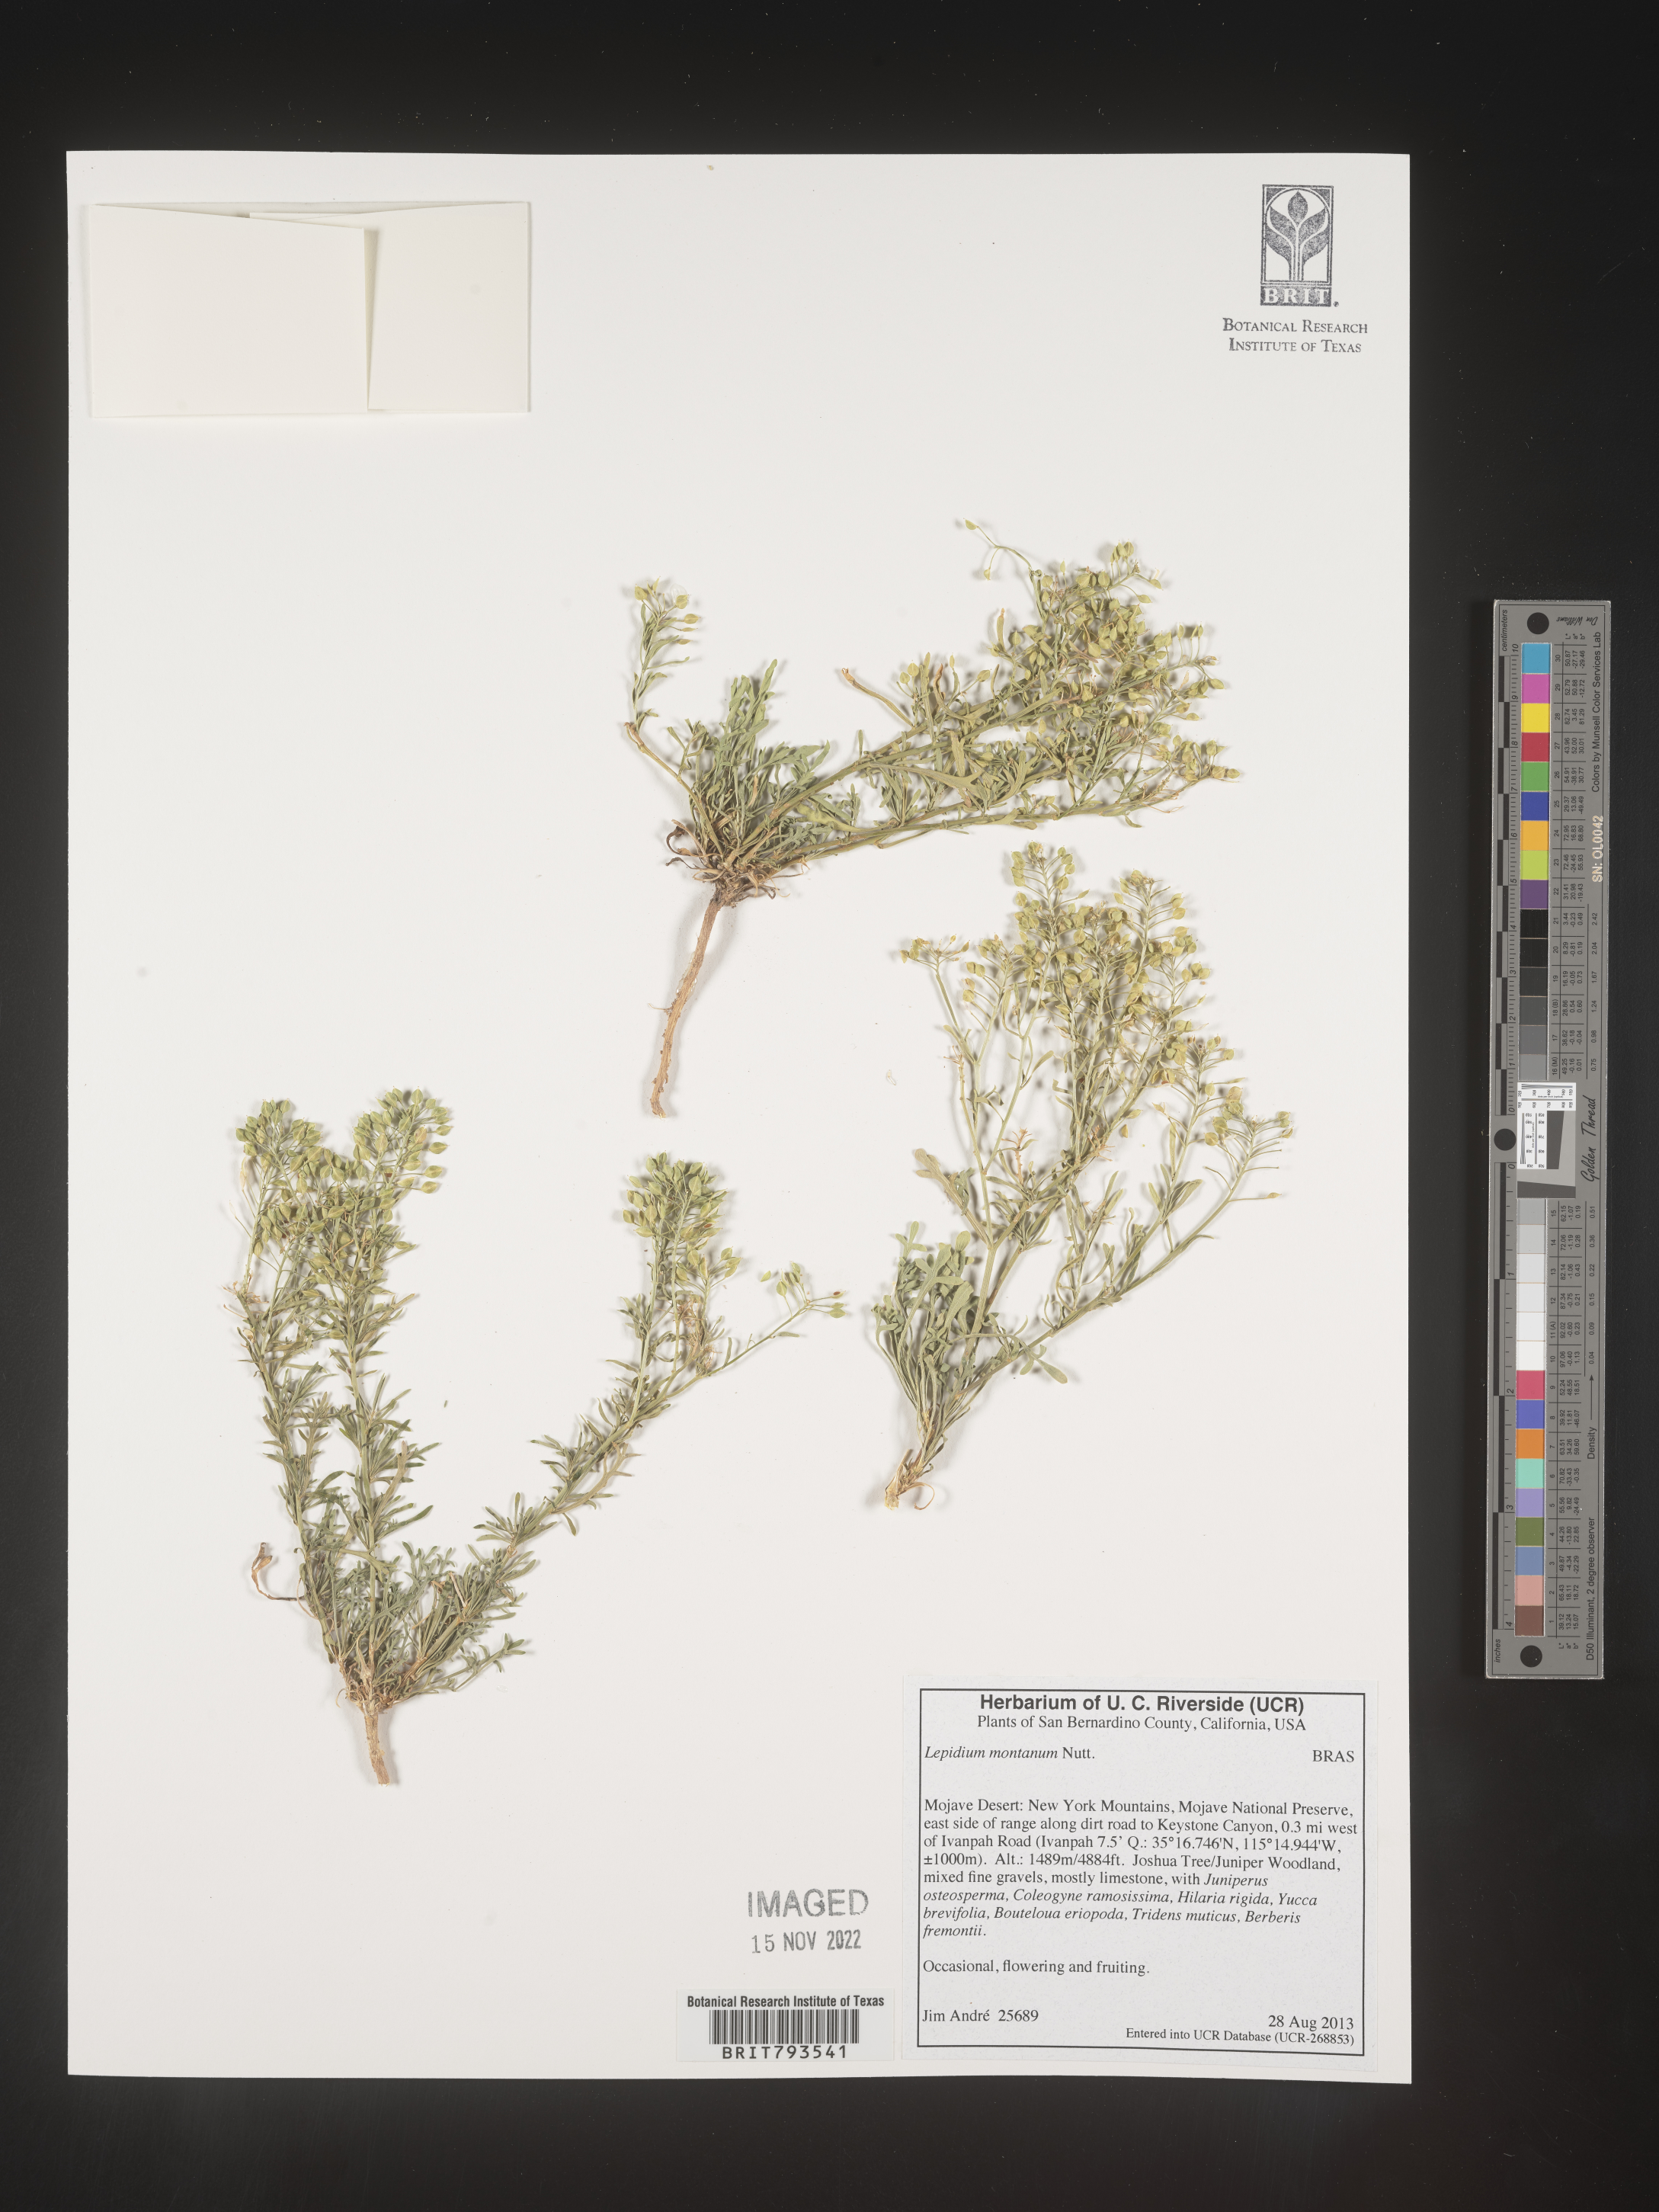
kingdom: Plantae
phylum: Tracheophyta
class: Magnoliopsida
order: Brassicales
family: Brassicaceae
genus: Lepidium
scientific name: Lepidium montanum
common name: Mountain pepperplant
